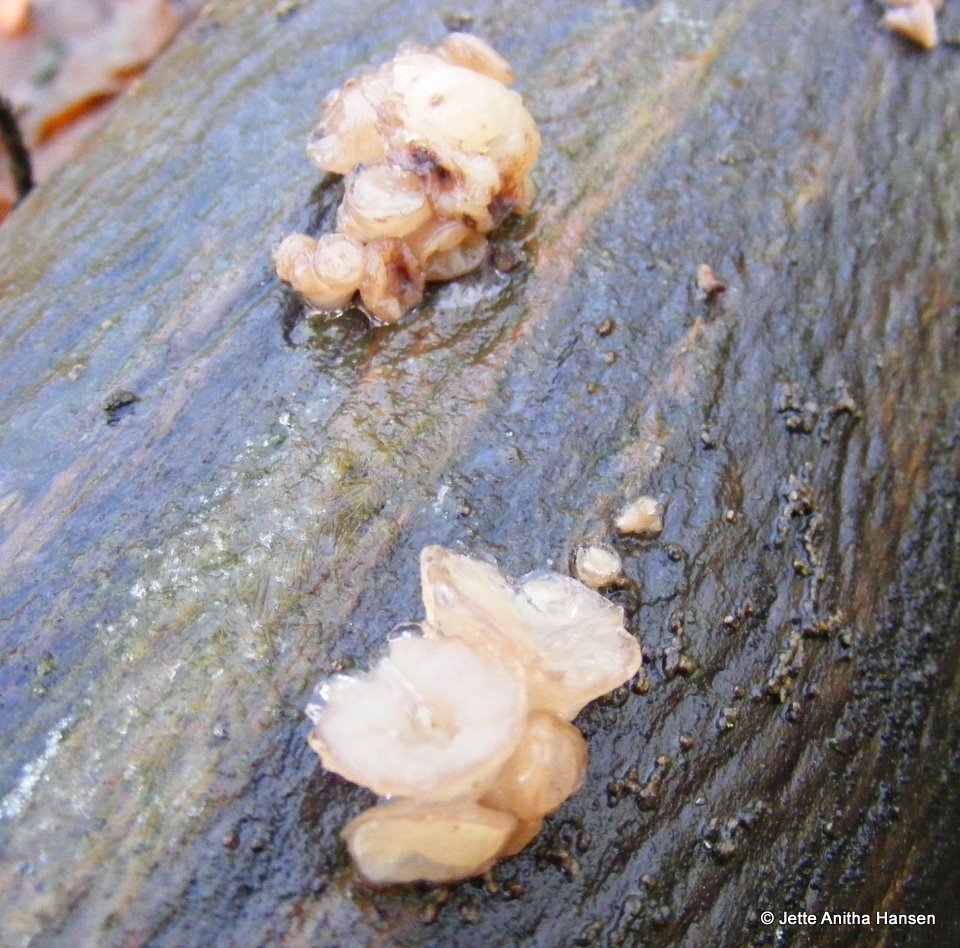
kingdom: Fungi
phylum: Ascomycota
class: Leotiomycetes
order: Helotiales
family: Gelatinodiscaceae
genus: Neobulgaria
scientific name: Neobulgaria pura
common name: bleg bævreskive
